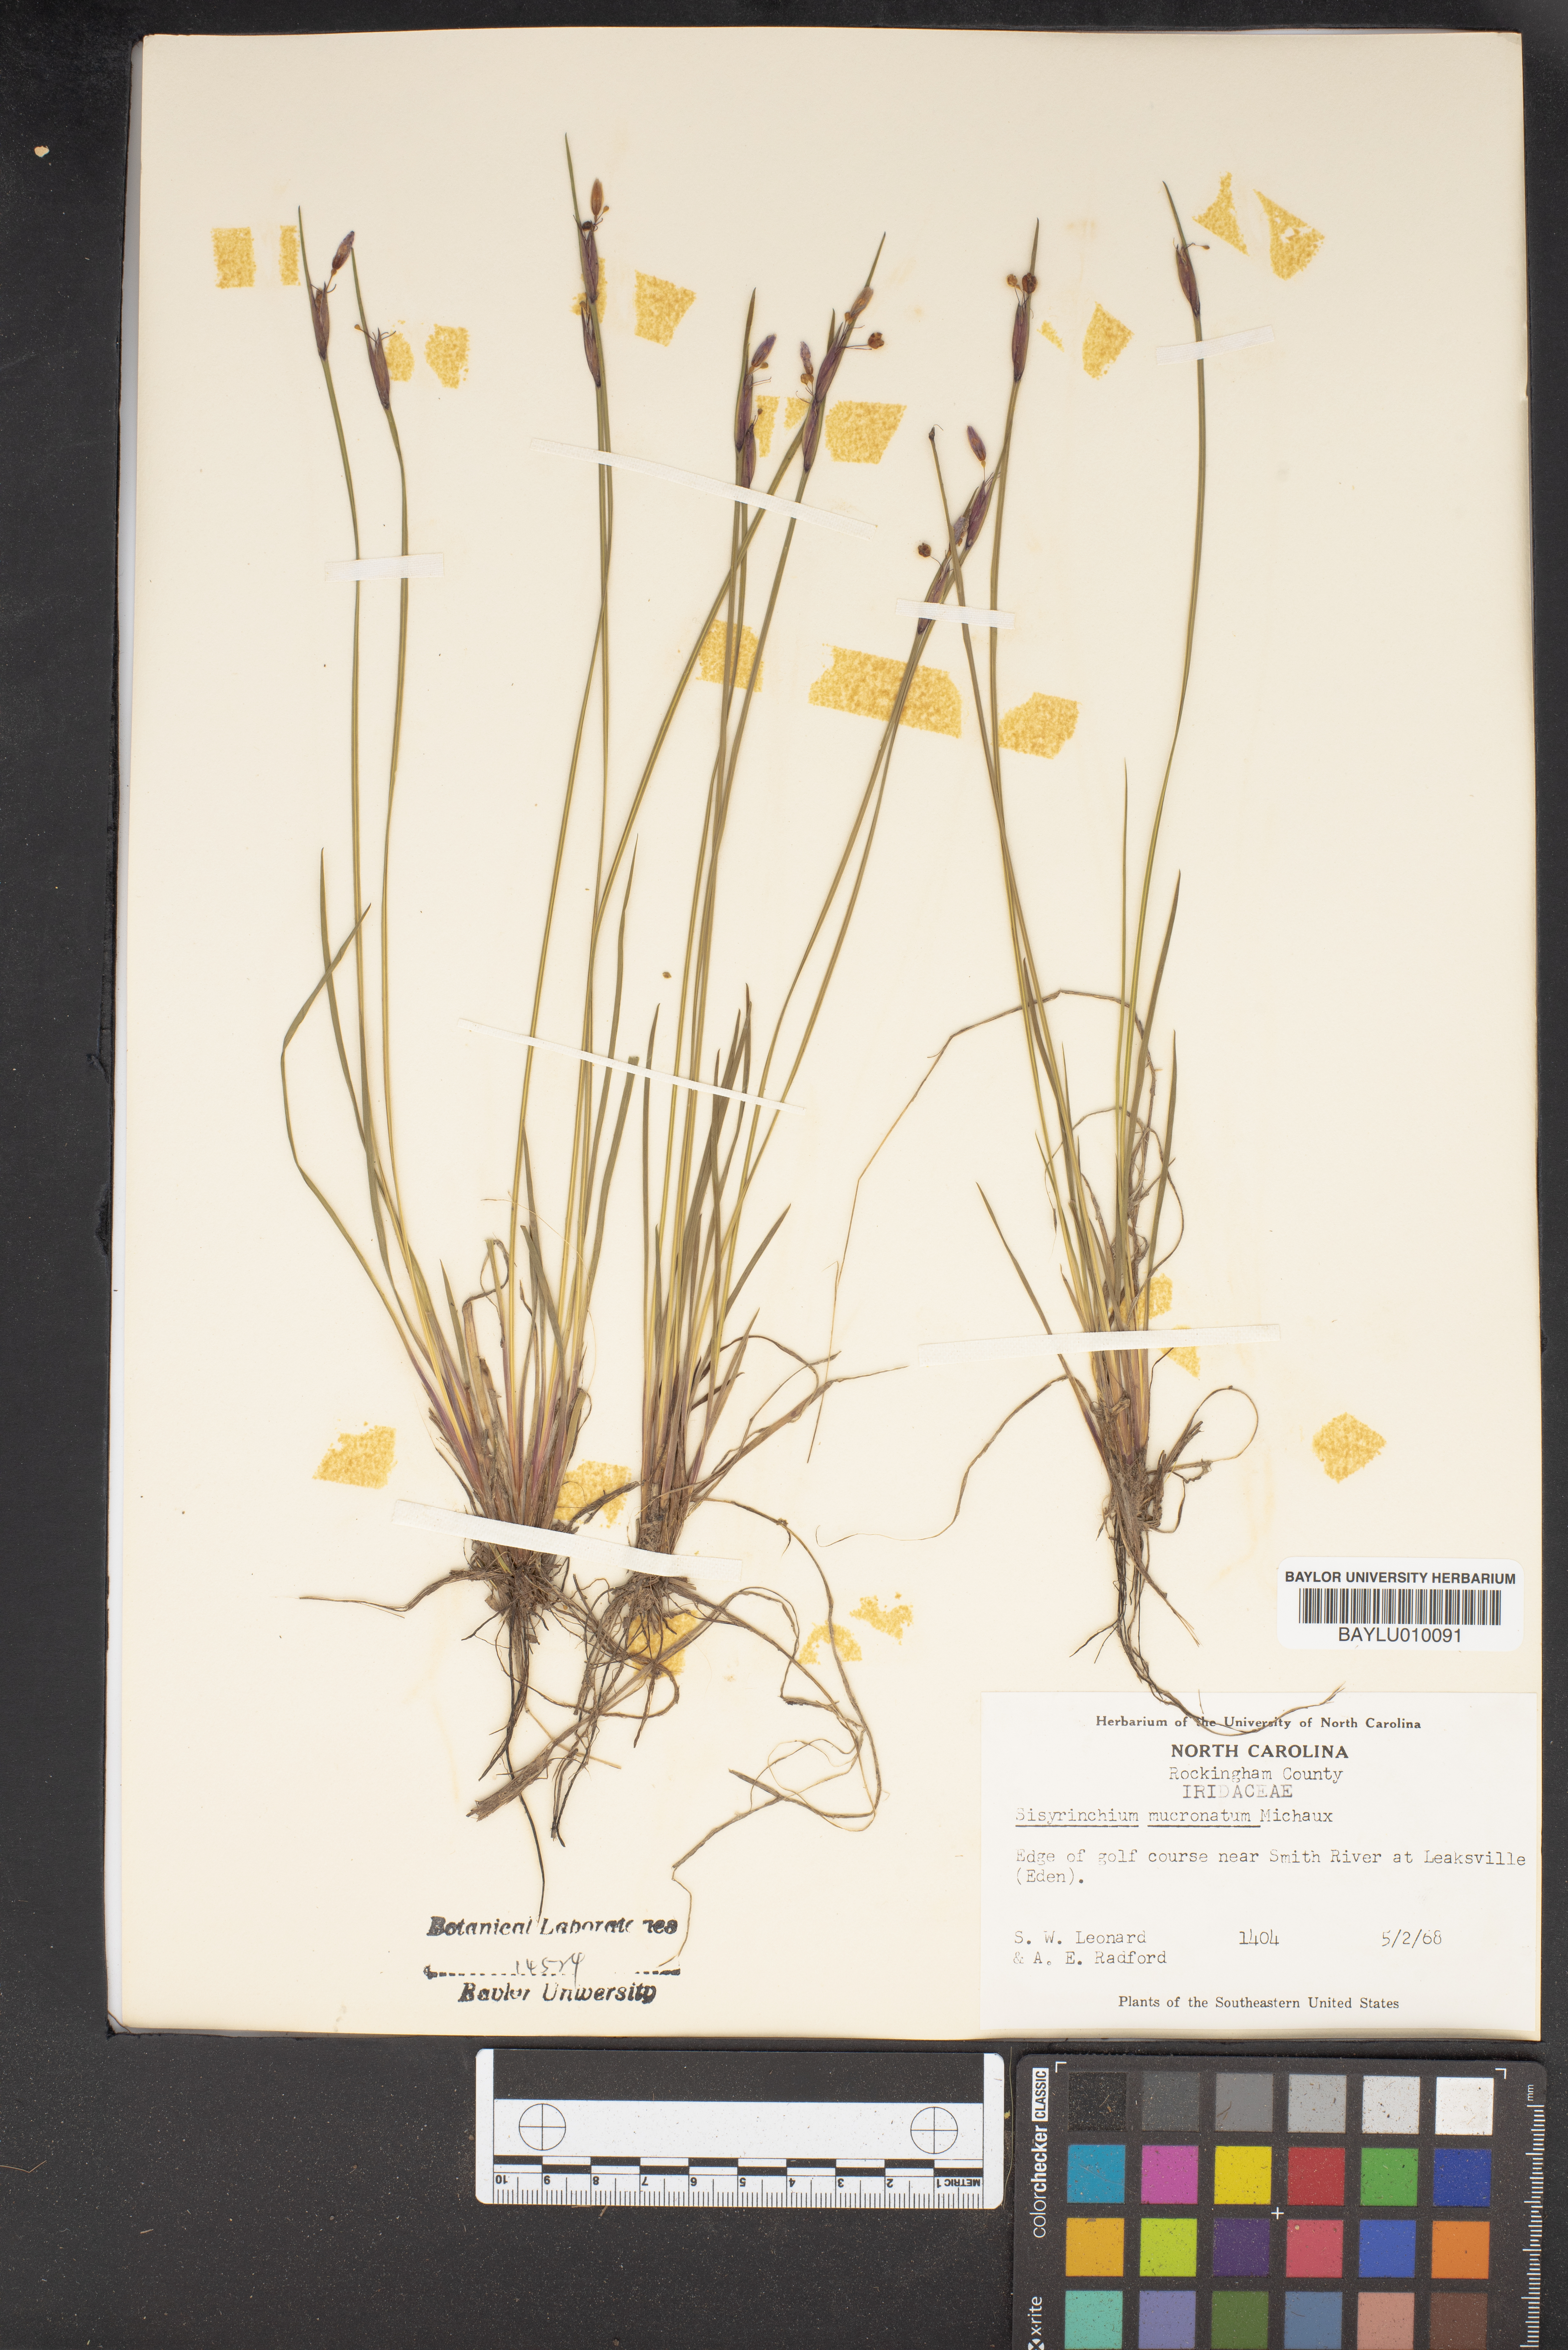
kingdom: Plantae
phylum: Tracheophyta
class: Liliopsida
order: Asparagales
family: Iridaceae
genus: Sisyrinchium
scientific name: Sisyrinchium mucronatum
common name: Eastern blue-eyed-grass
